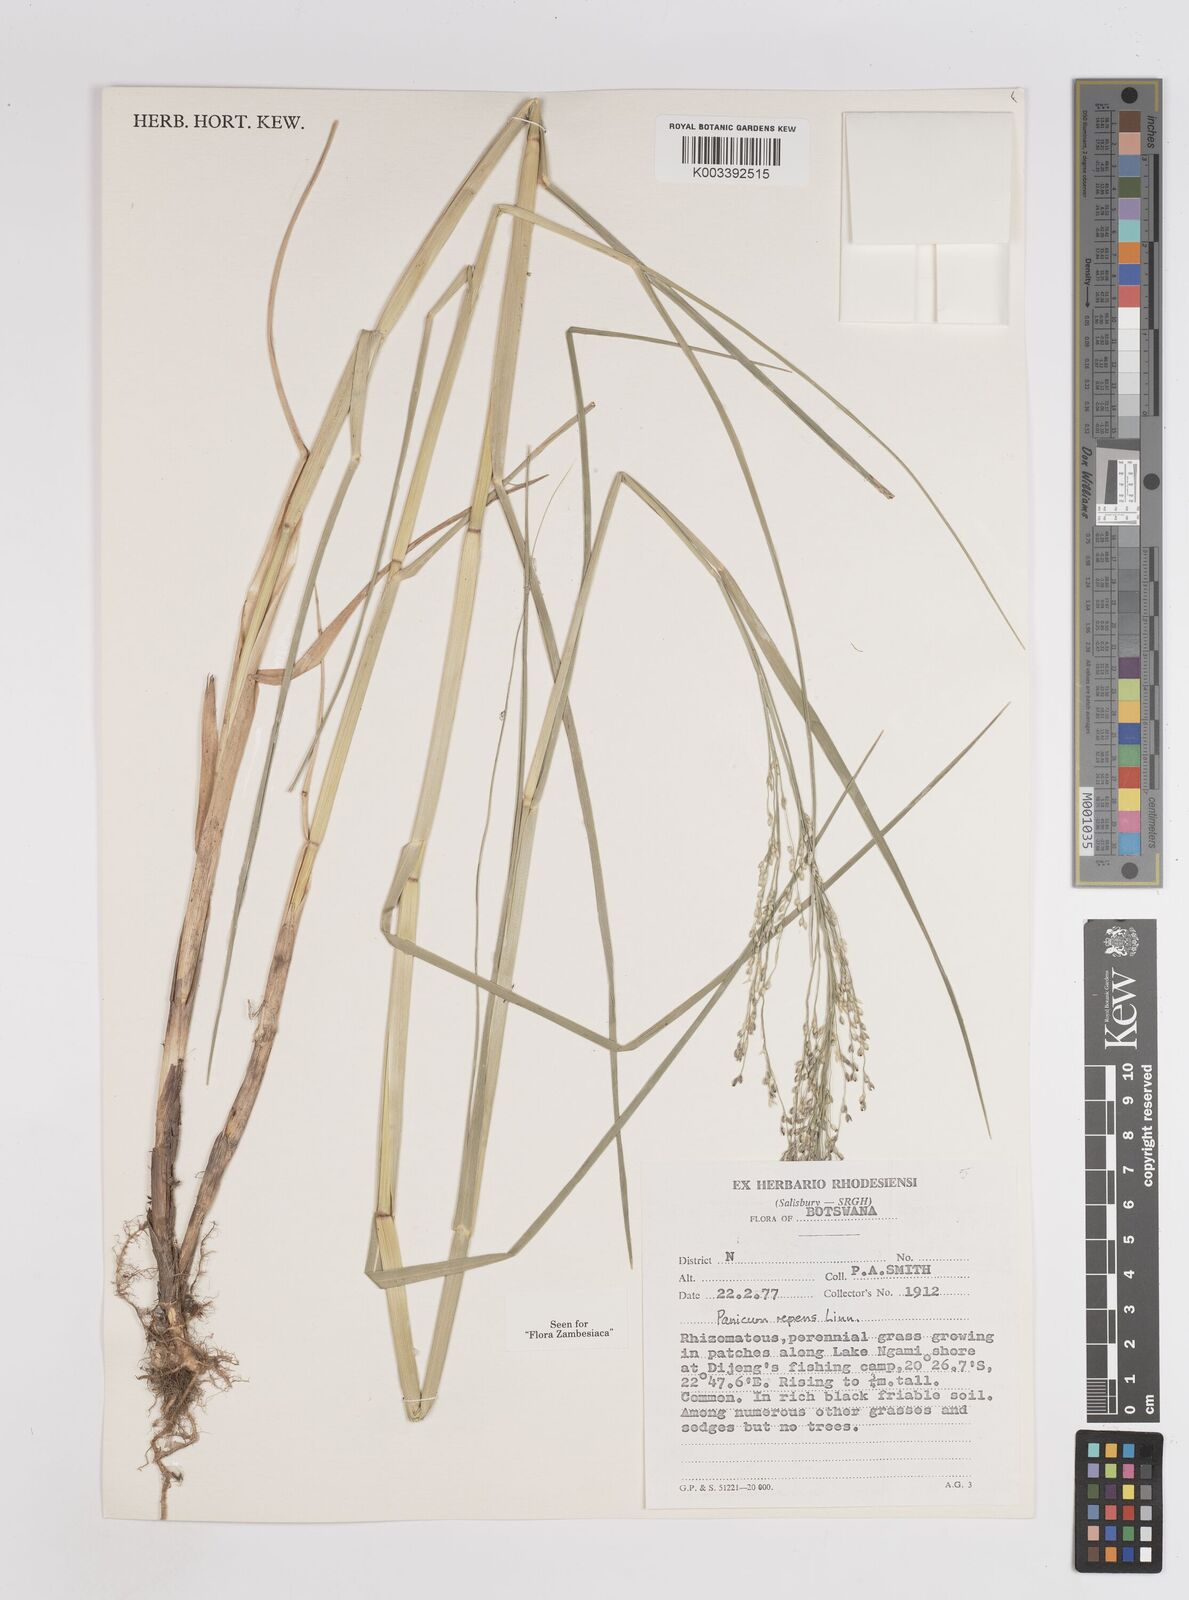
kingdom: Plantae
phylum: Tracheophyta
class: Liliopsida
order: Poales
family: Poaceae
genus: Panicum
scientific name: Panicum repens
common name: Torpedo grass
